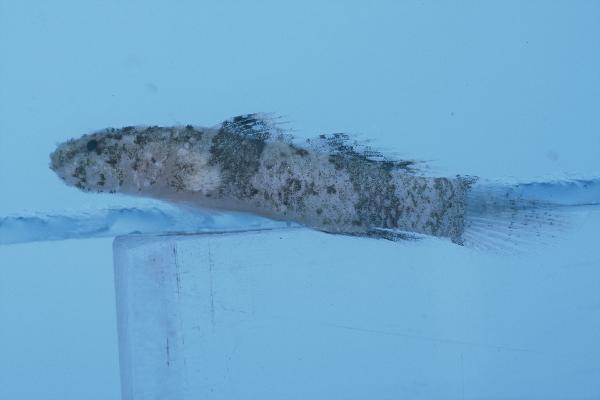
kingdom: Animalia
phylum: Chordata
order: Perciformes
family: Gobiidae
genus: Callogobius
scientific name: Callogobius sclateri
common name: Dusky-banded goby
